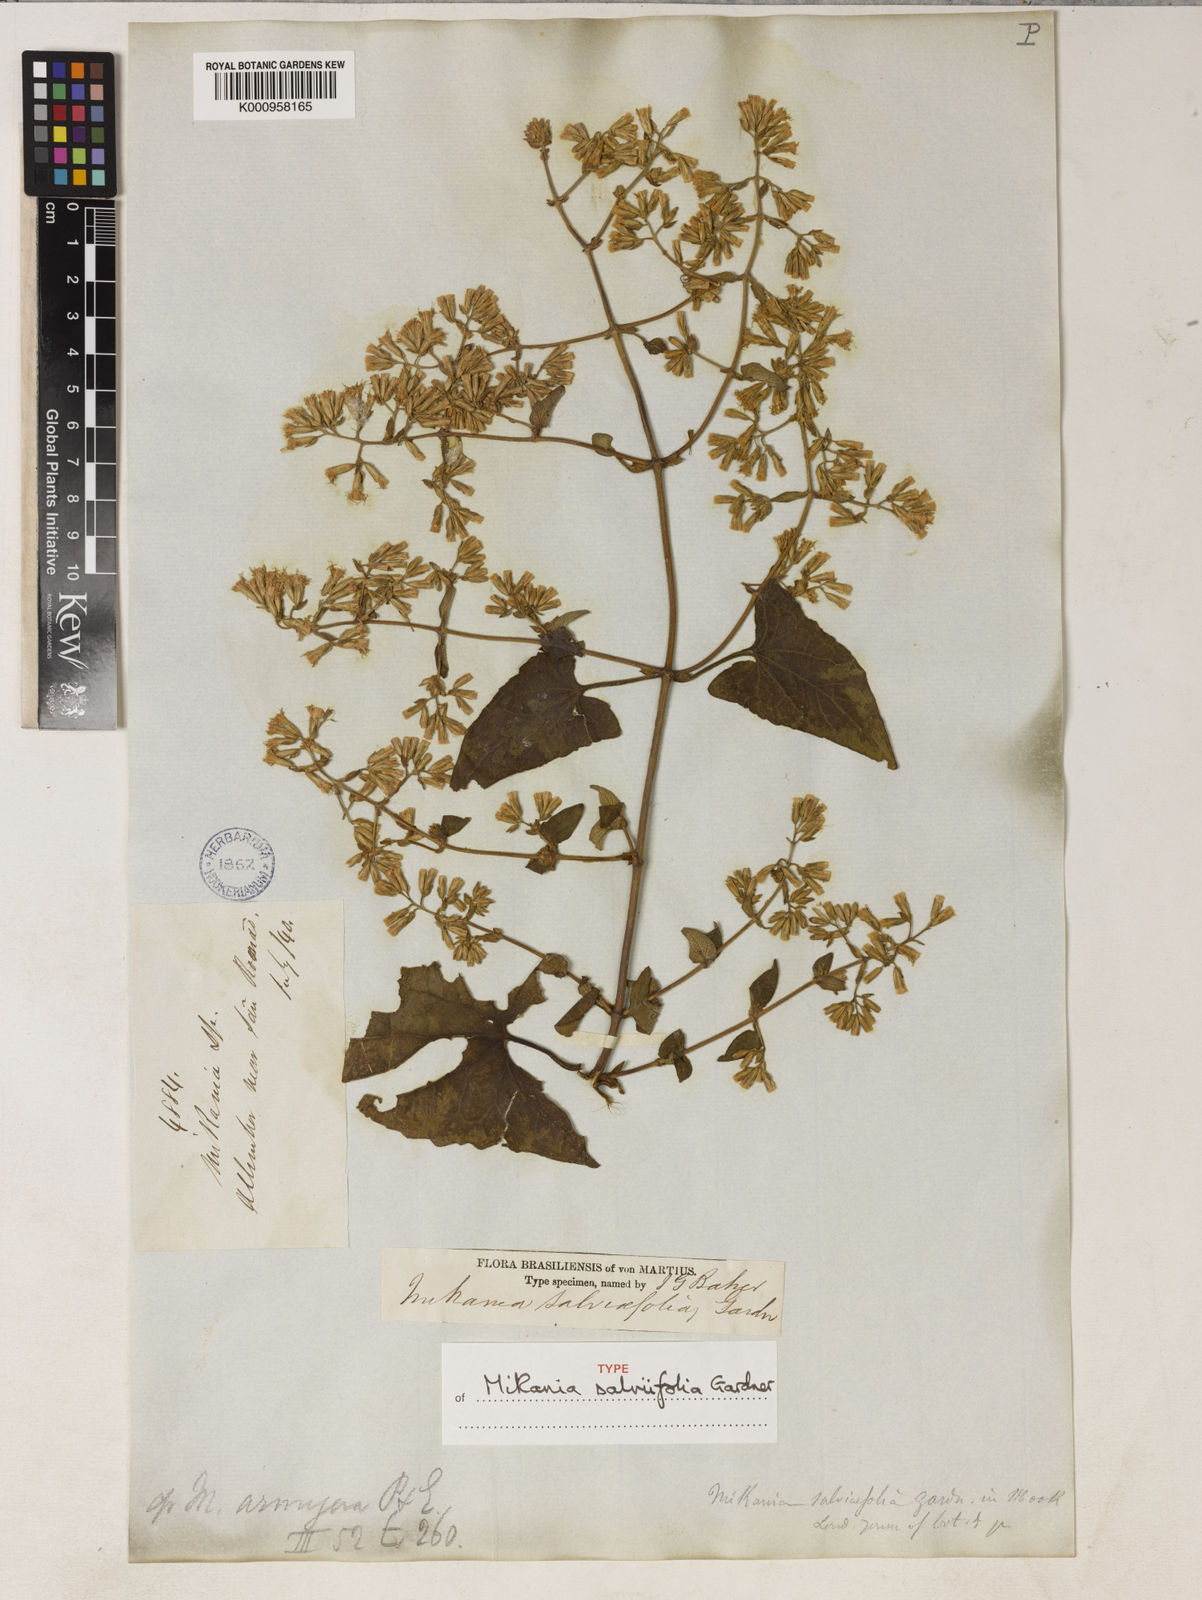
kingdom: Plantae
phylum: Tracheophyta
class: Magnoliopsida
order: Asterales
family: Asteraceae
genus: Mikania
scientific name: Mikania salviifolia
